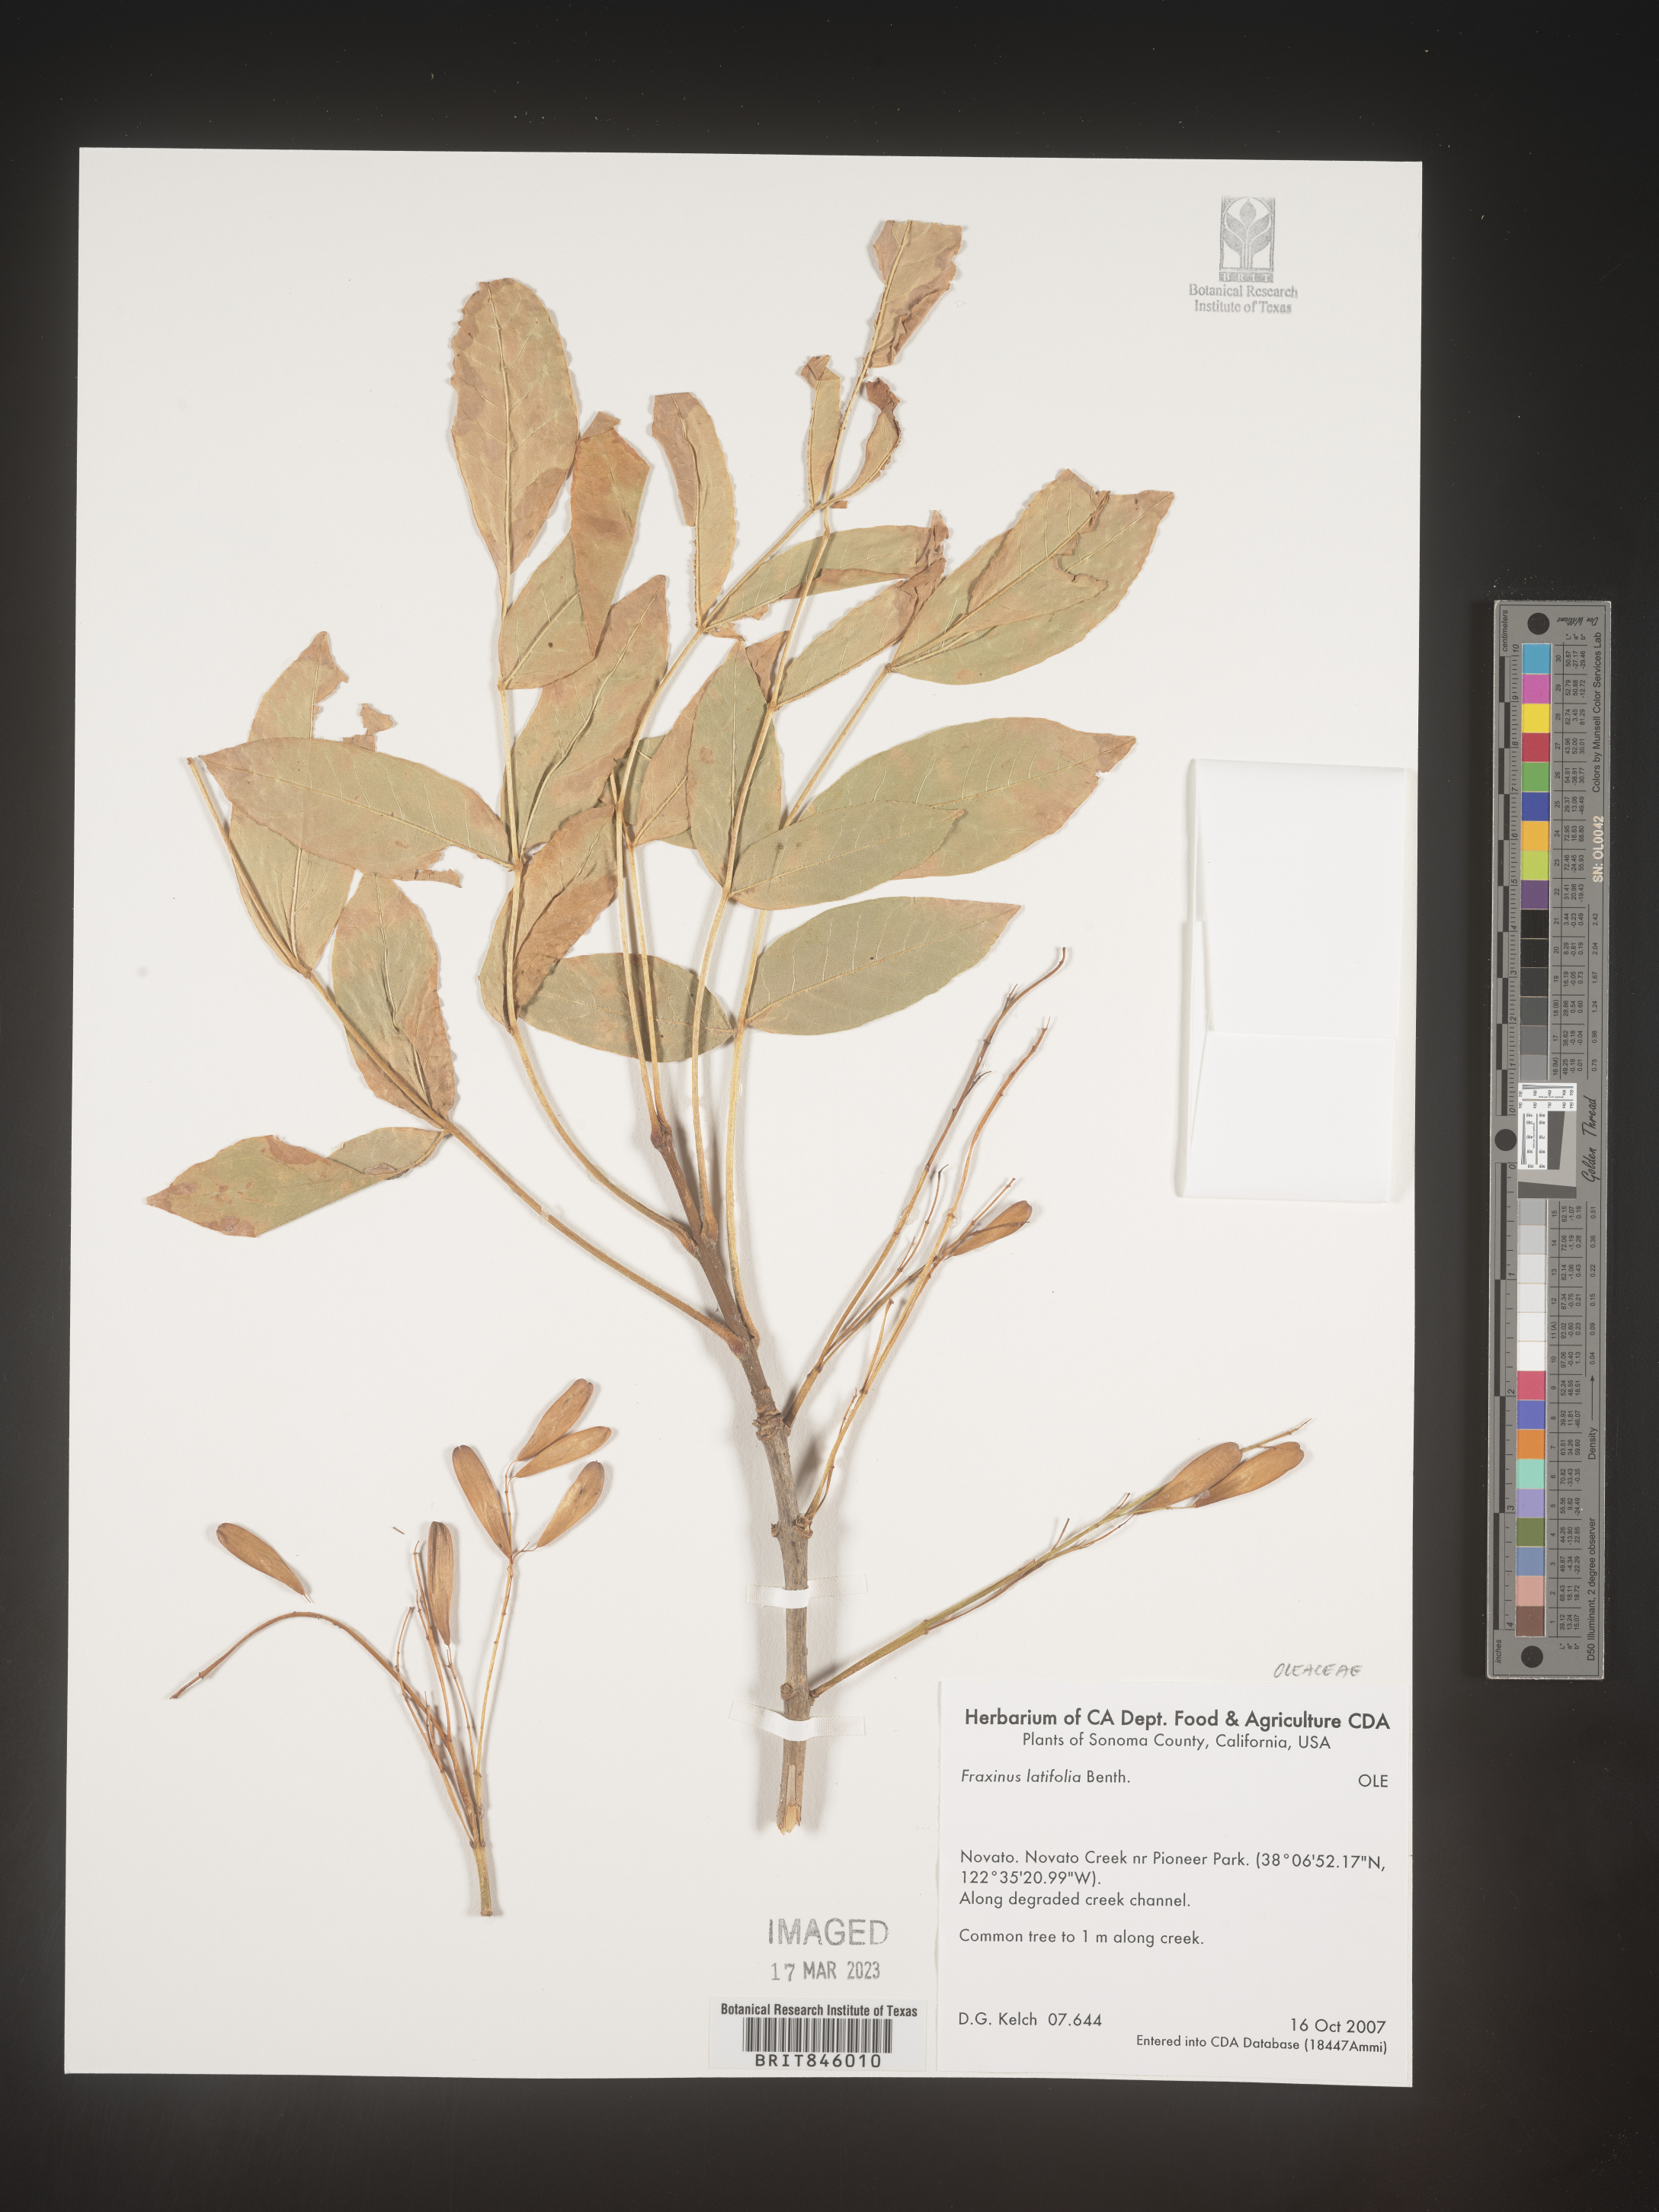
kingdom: Plantae
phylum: Tracheophyta
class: Magnoliopsida
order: Lamiales
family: Oleaceae
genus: Fraxinus
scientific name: Fraxinus latifolia
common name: Oregon ash
